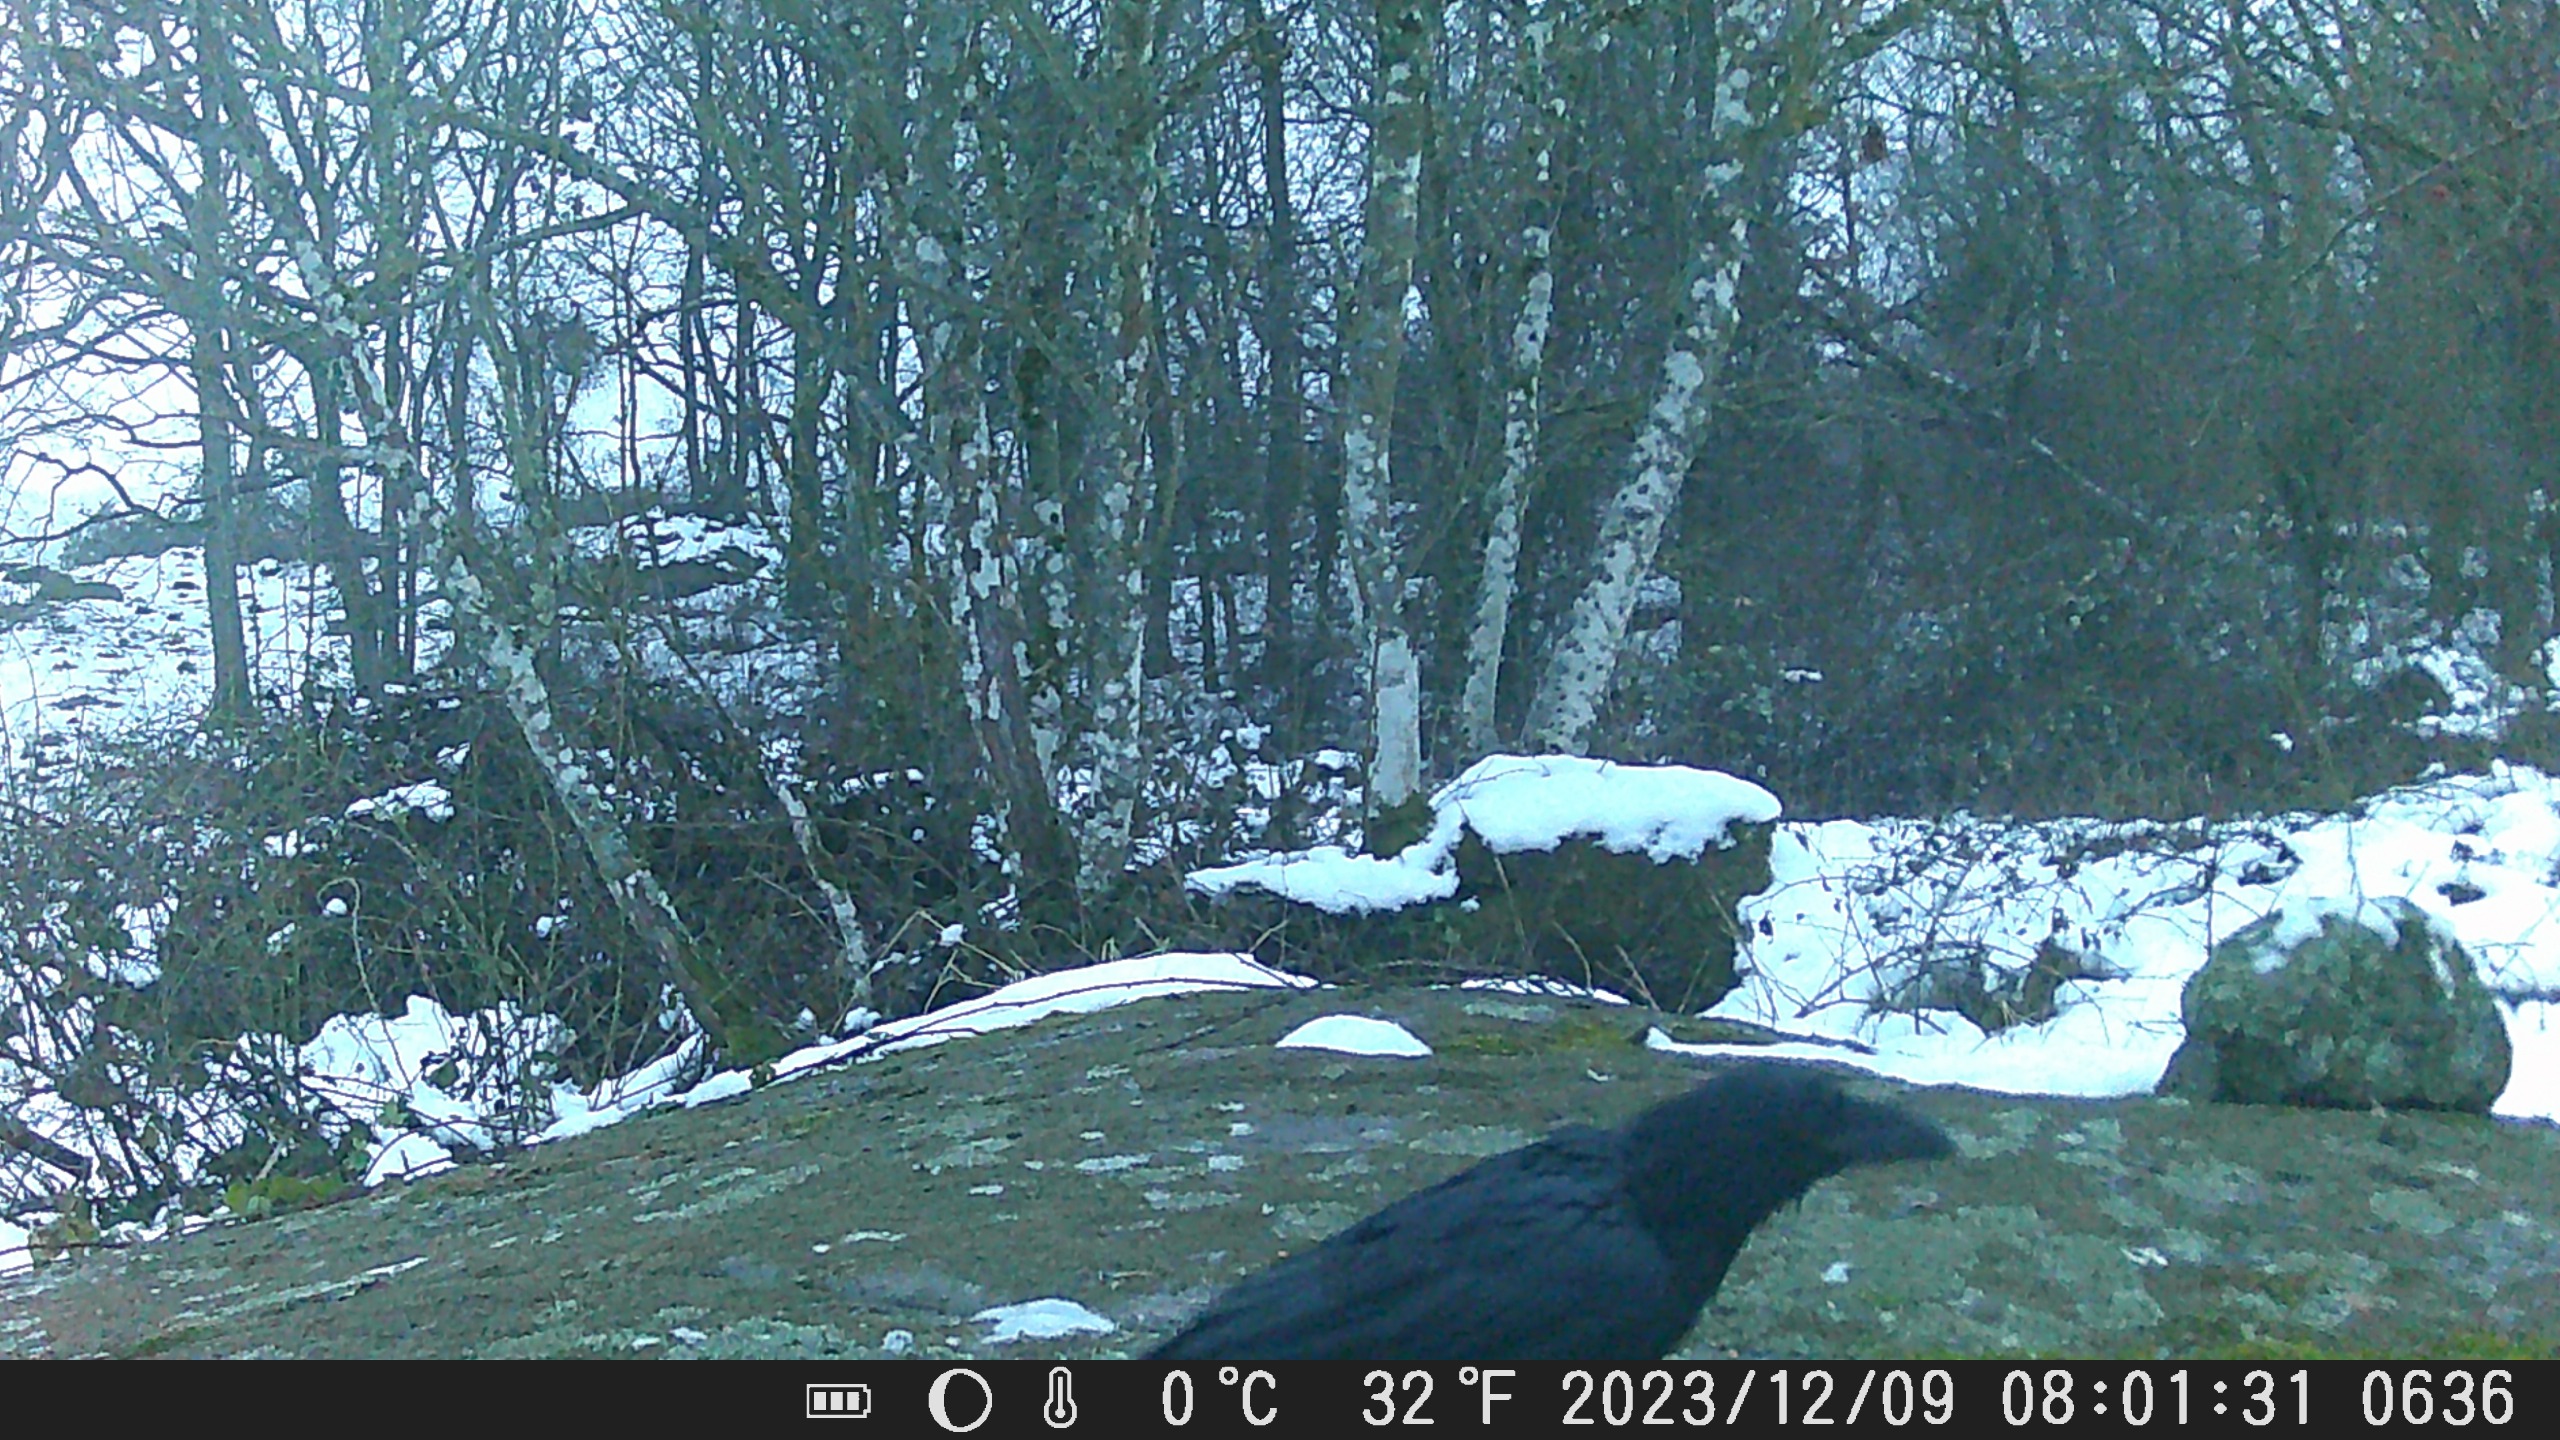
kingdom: Animalia
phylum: Chordata
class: Aves
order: Passeriformes
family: Corvidae
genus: Corvus
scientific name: Corvus corax
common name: Ravn
